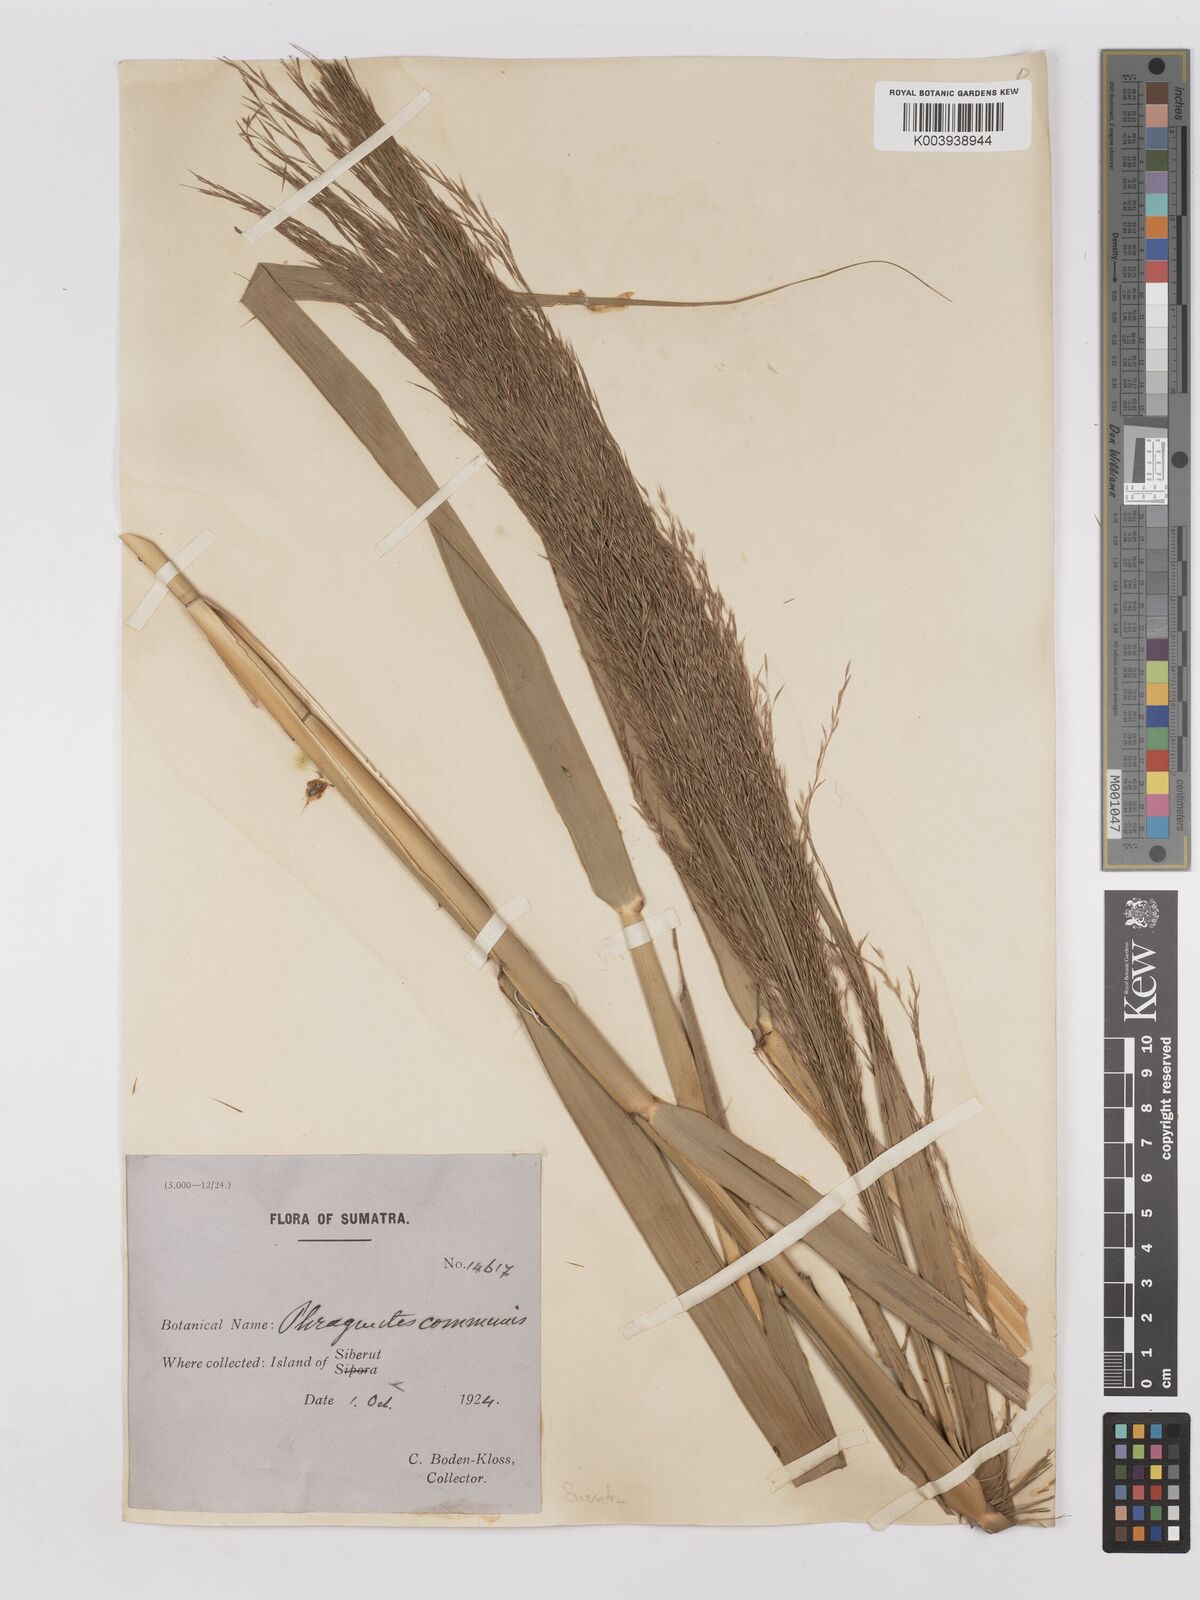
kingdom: Plantae
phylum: Tracheophyta
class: Liliopsida
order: Poales
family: Poaceae
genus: Phragmites
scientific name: Phragmites karka
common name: Tropical reed
